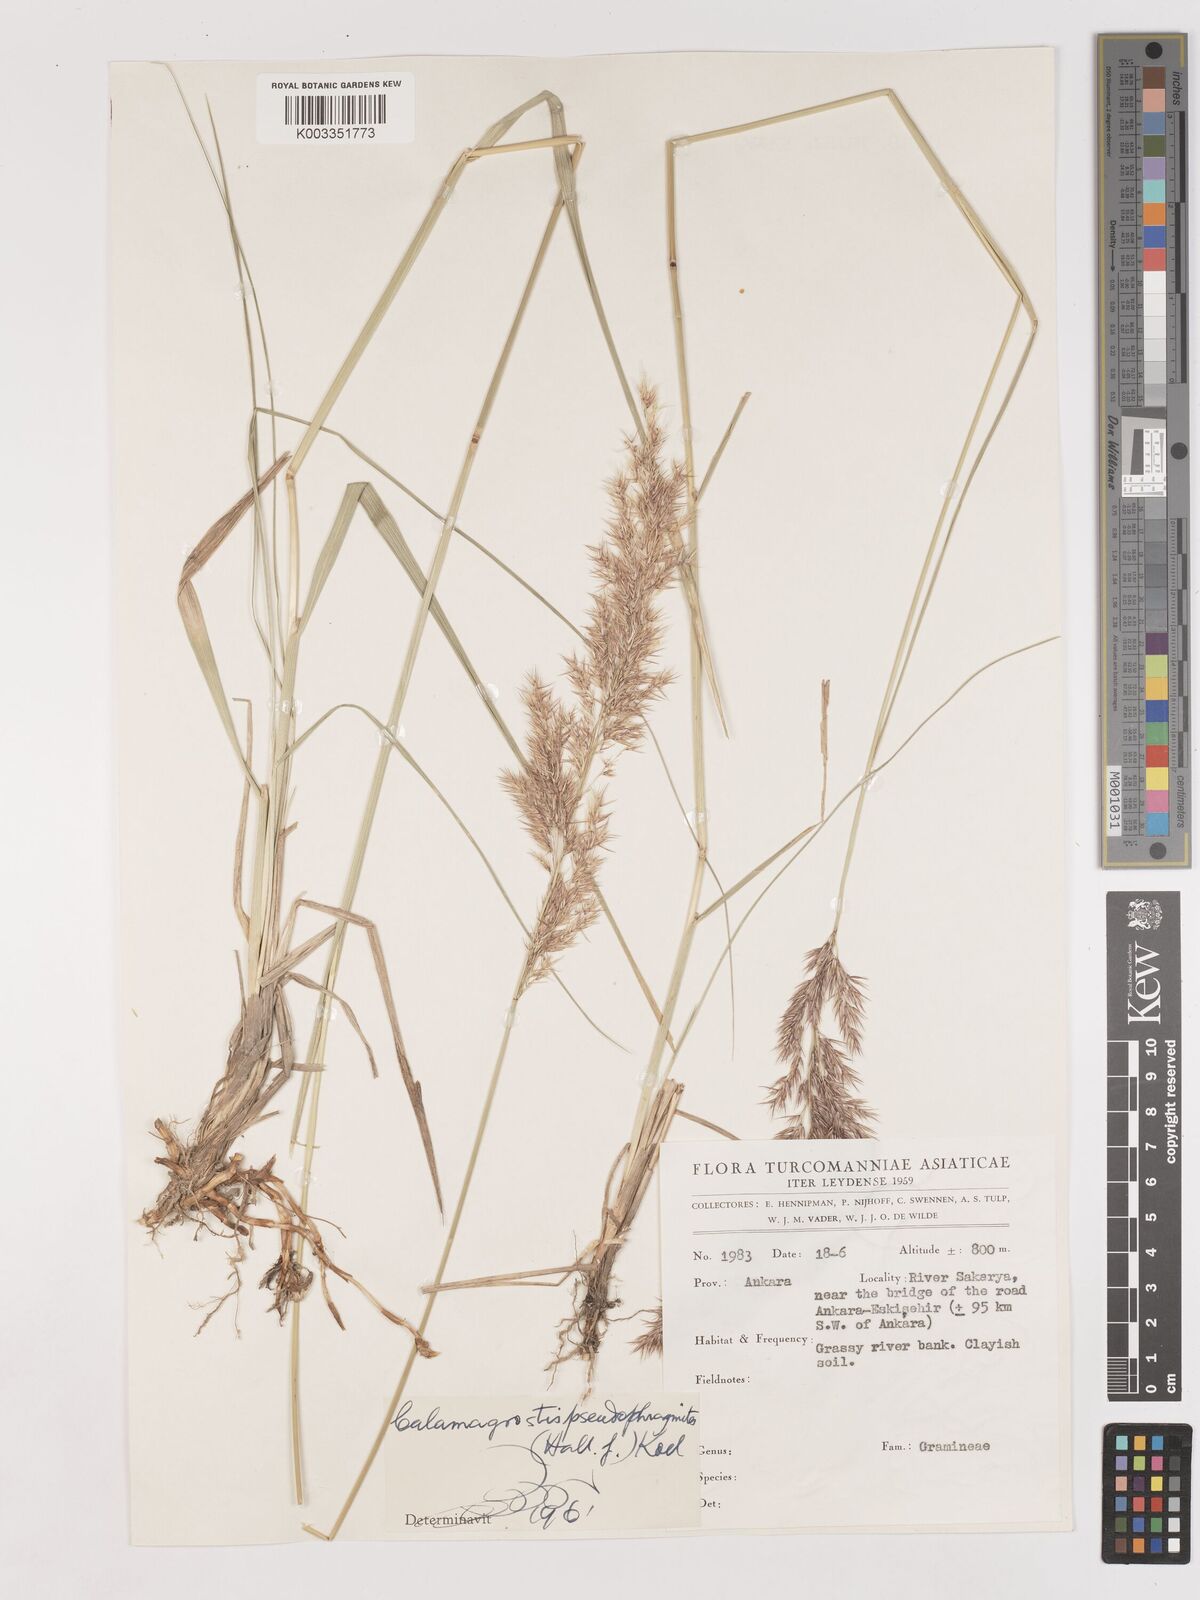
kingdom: Plantae
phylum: Tracheophyta
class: Liliopsida
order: Poales
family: Poaceae
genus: Calamagrostis
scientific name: Calamagrostis pseudophragmites
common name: Coastal small-reed
